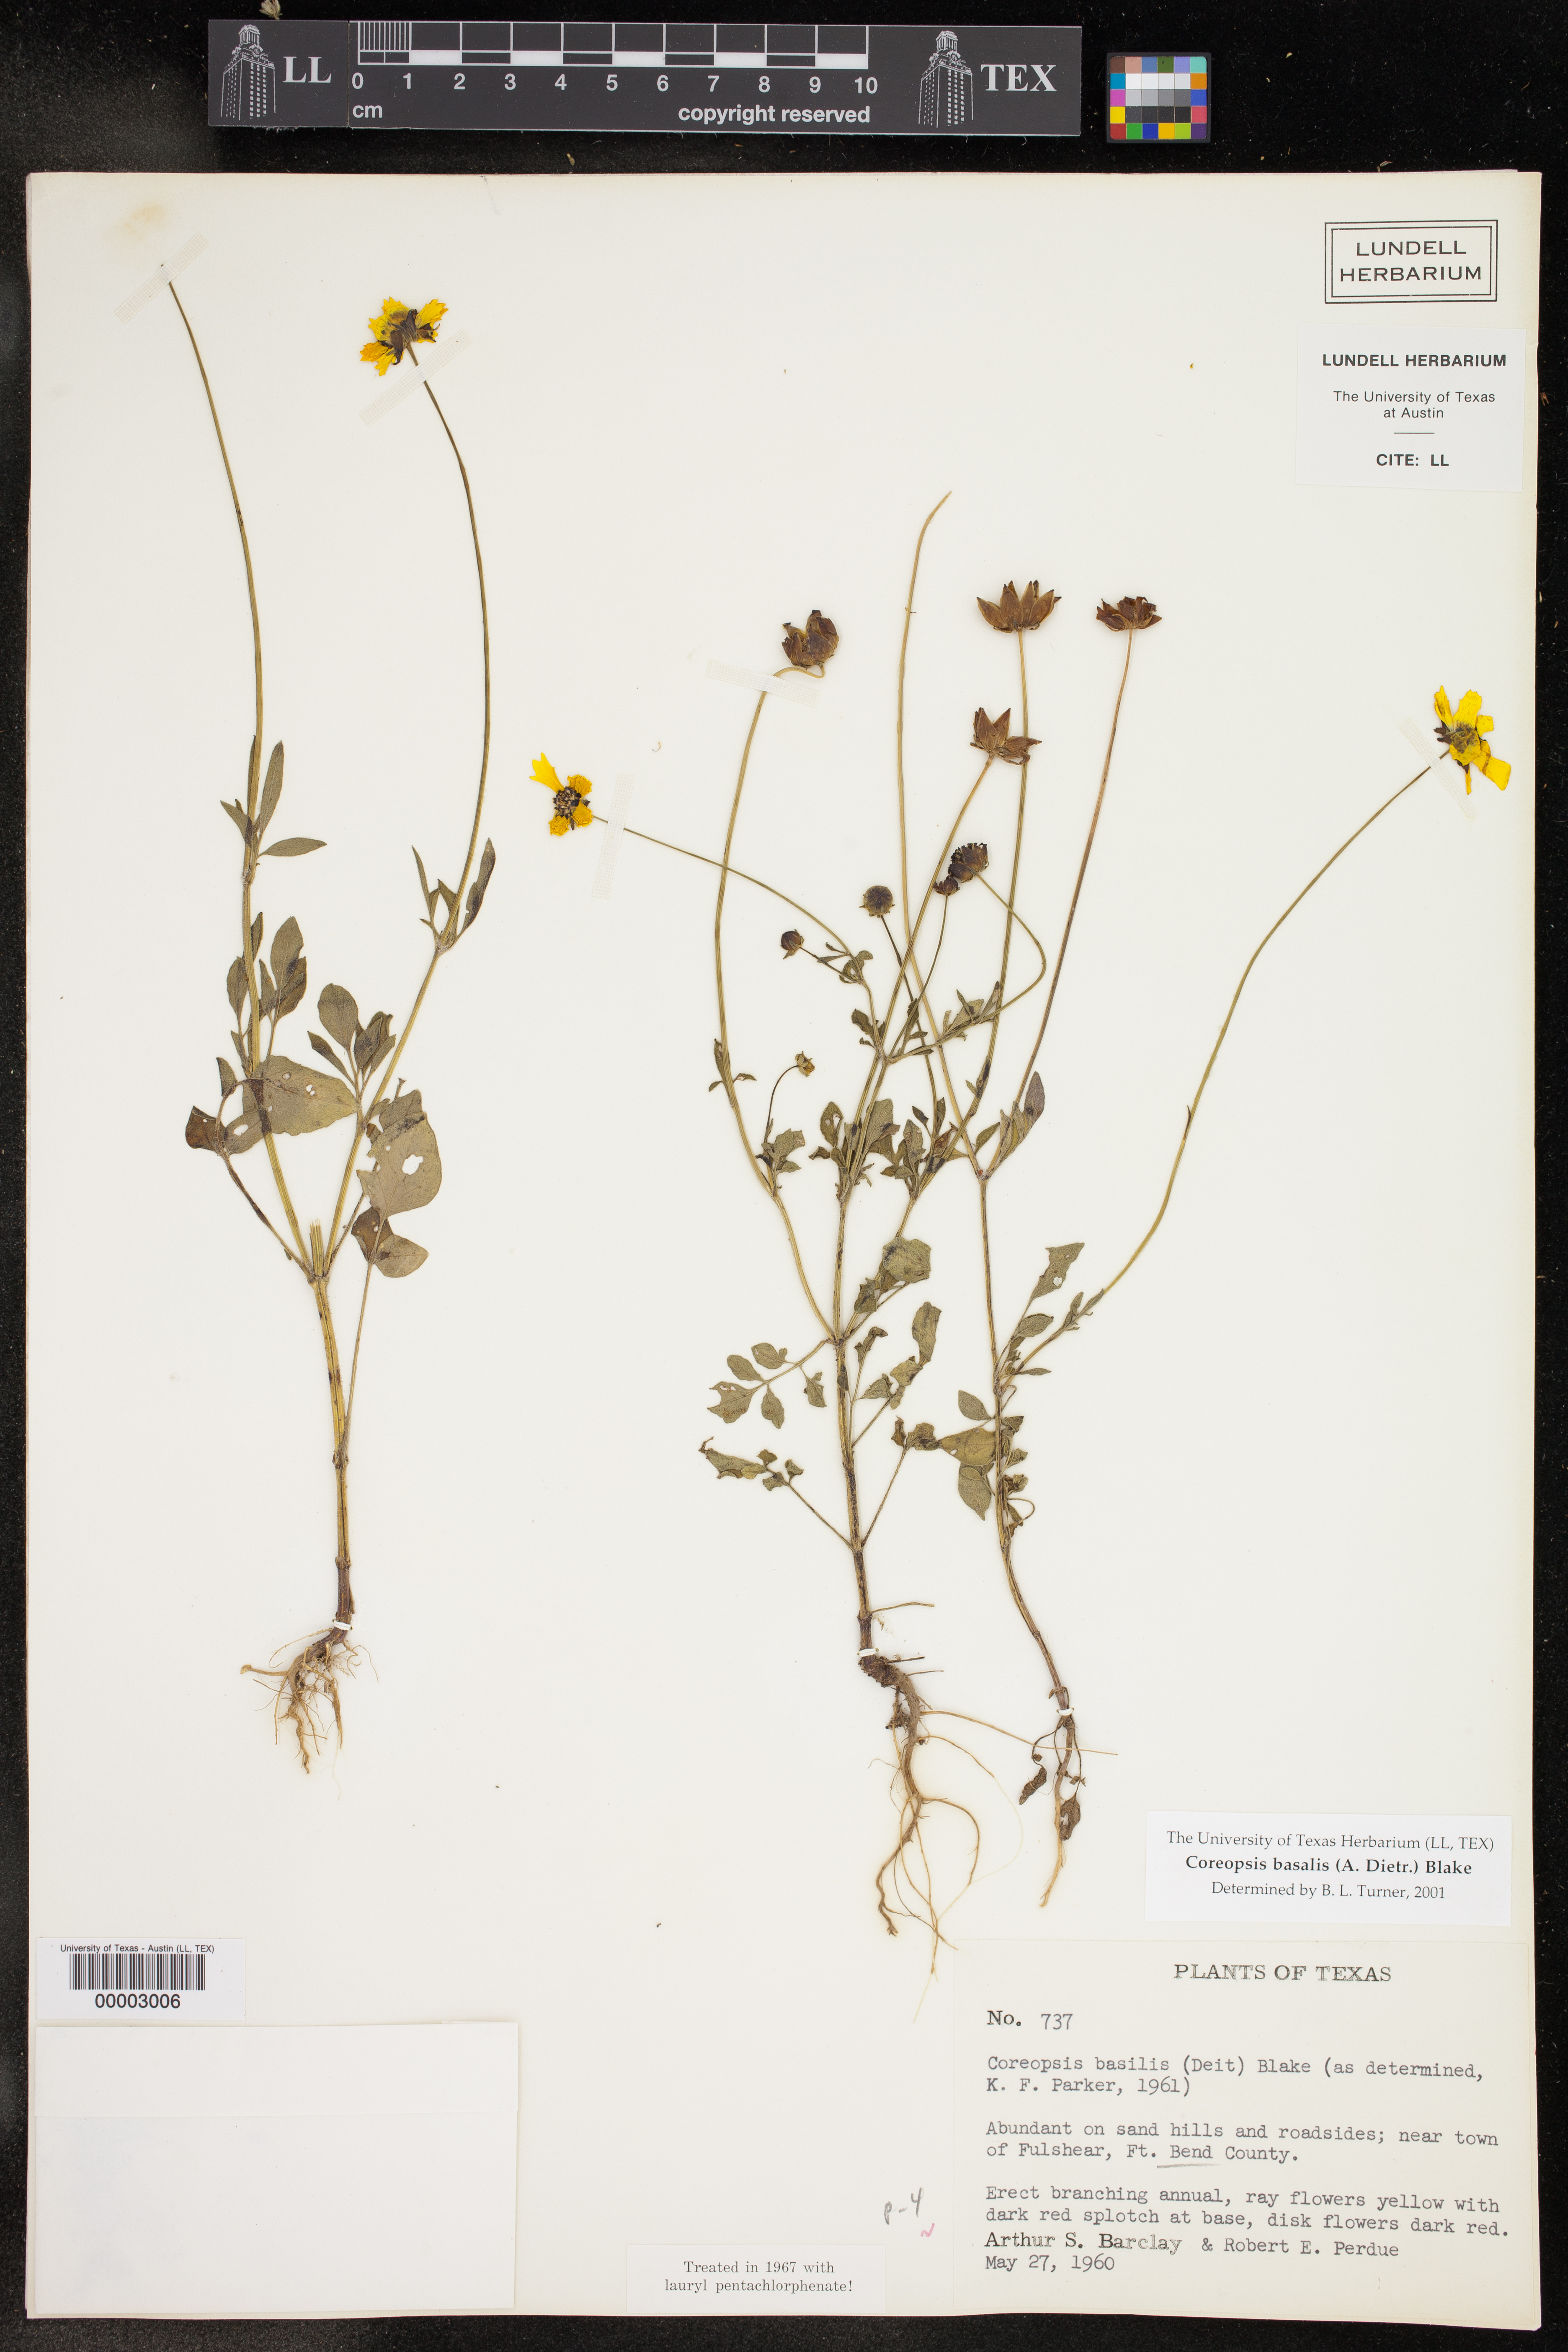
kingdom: Plantae
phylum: Tracheophyta
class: Magnoliopsida
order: Asterales
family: Asteraceae
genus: Coreopsis
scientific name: Coreopsis basalis
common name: Golden-mane coreopsis
